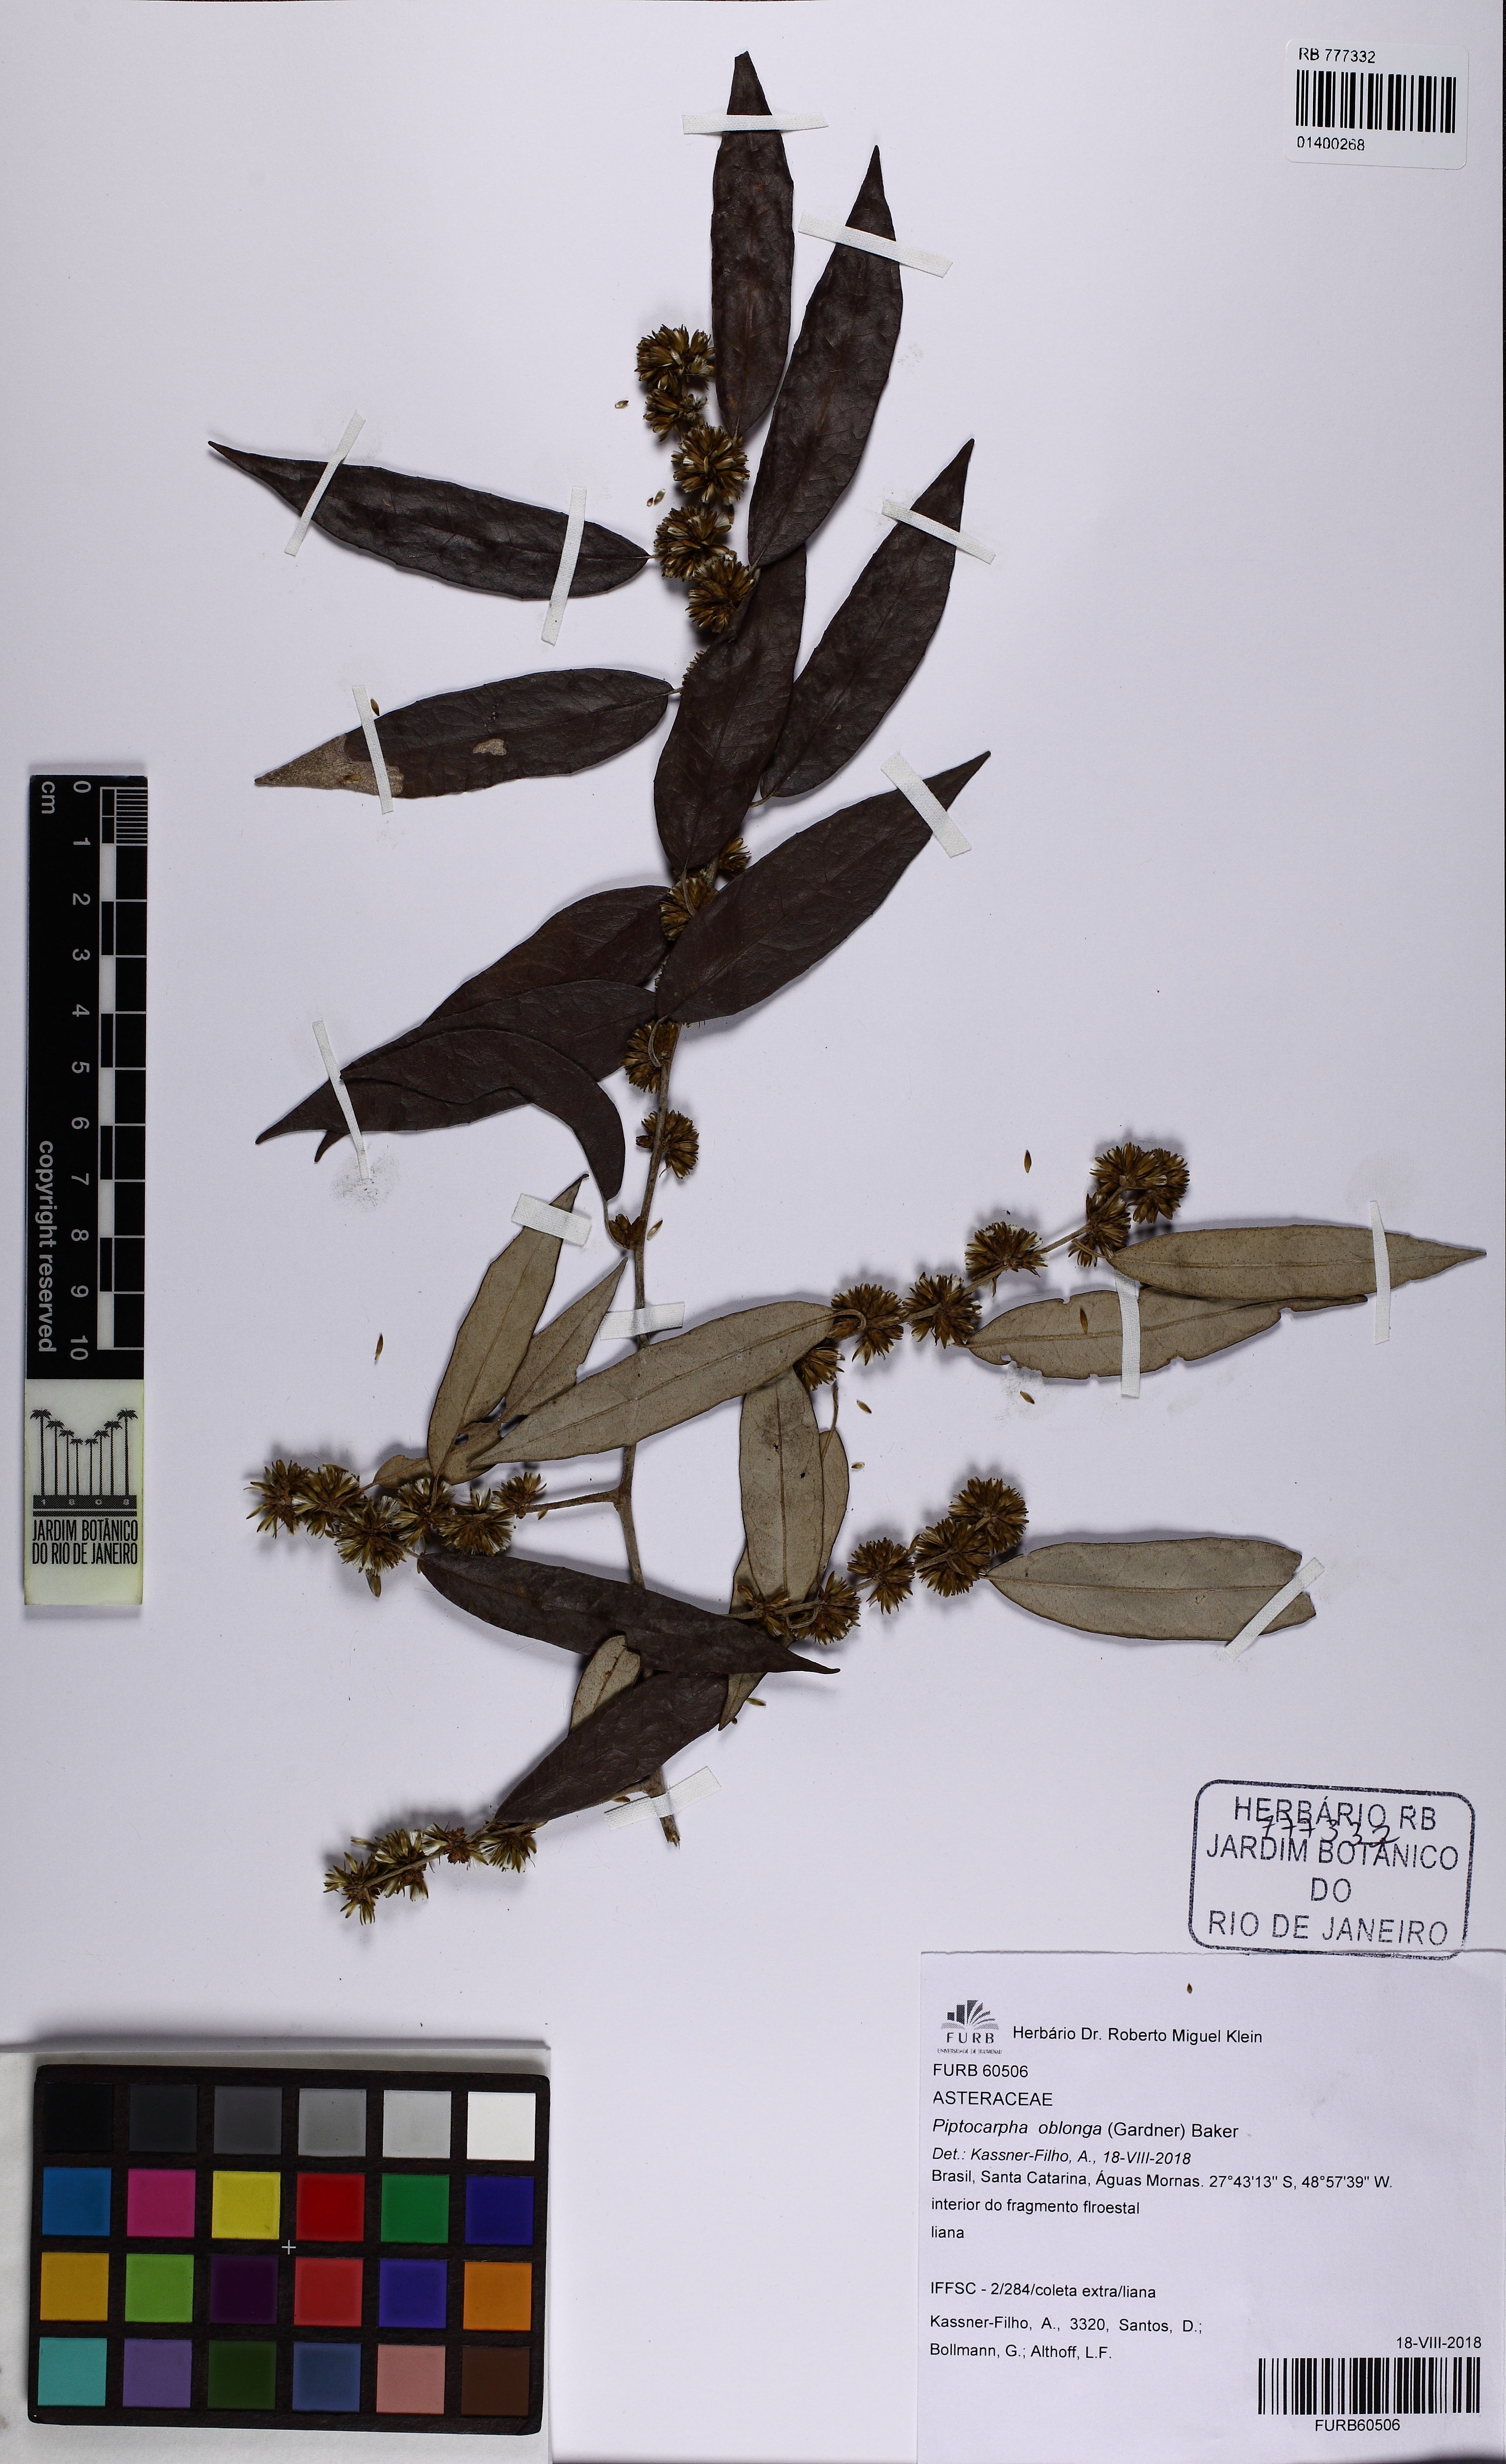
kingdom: Plantae
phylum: Tracheophyta
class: Magnoliopsida
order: Asterales
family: Asteraceae
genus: Piptocarpha
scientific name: Piptocarpha oblonga
